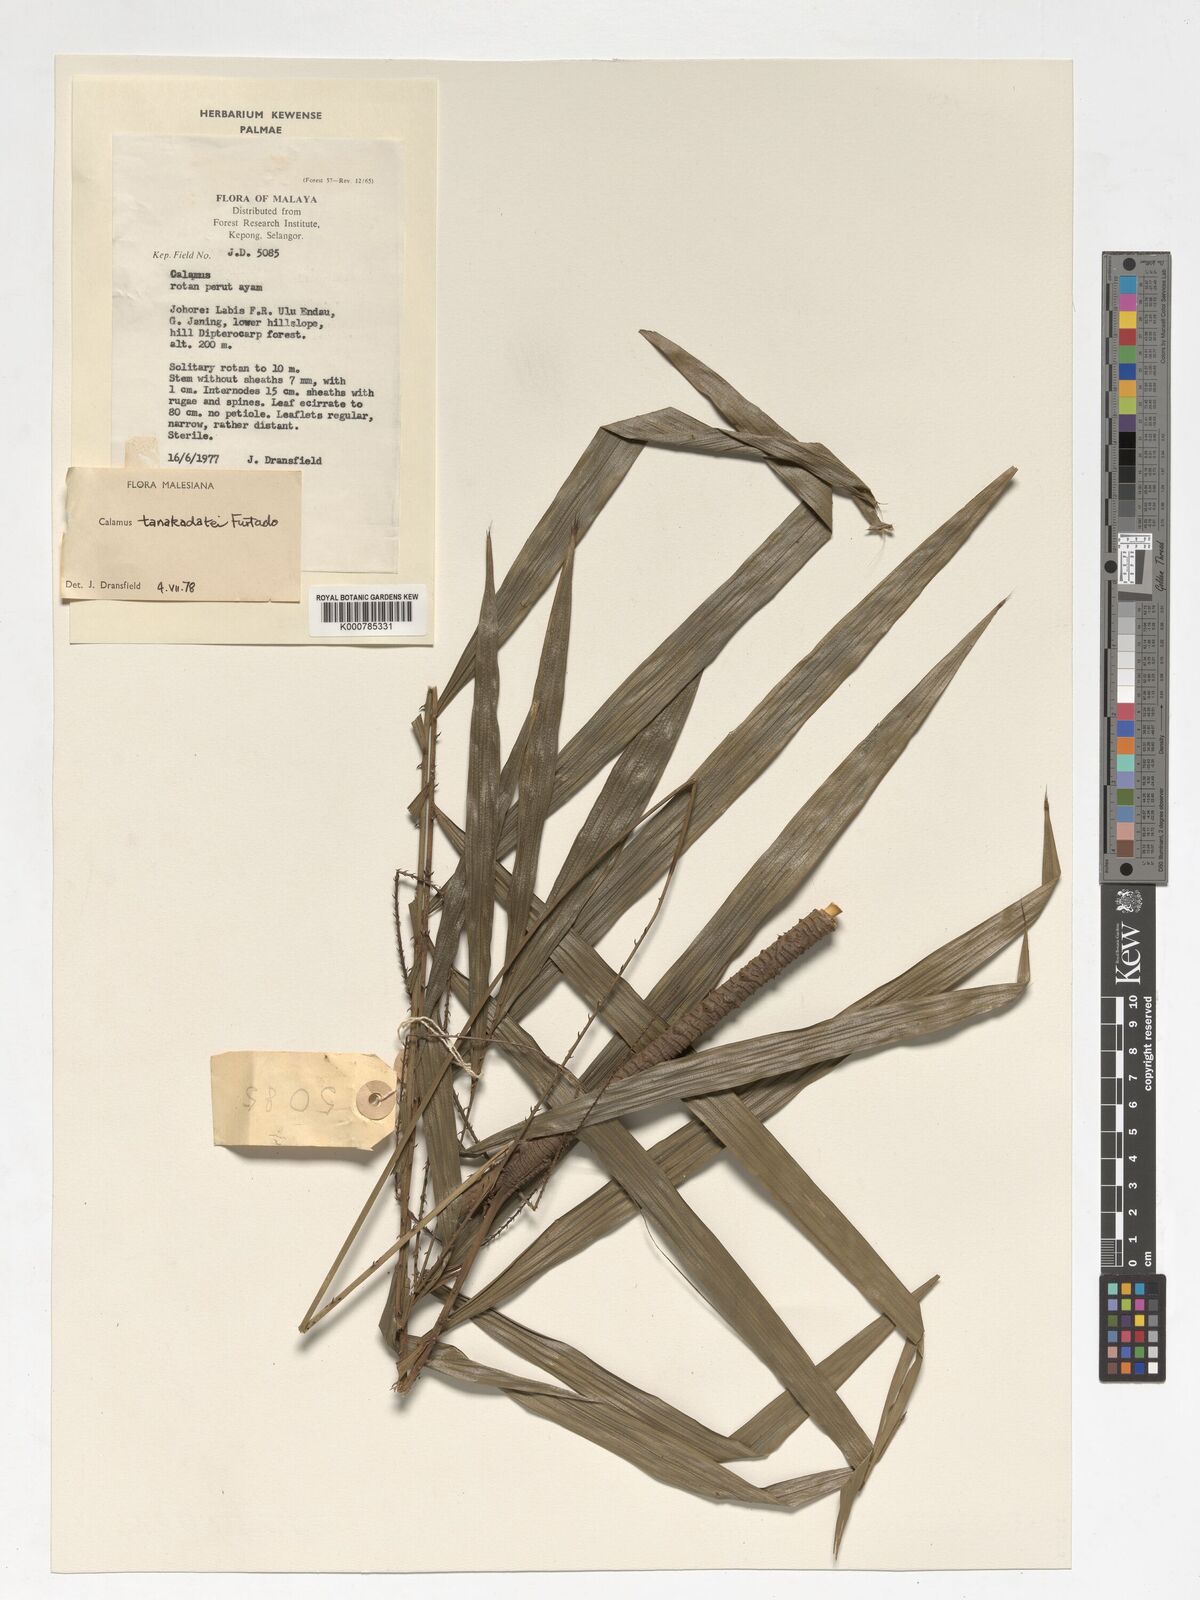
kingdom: Plantae
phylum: Tracheophyta
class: Liliopsida
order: Arecales
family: Arecaceae
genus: Calamus
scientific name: Calamus ruvidus
